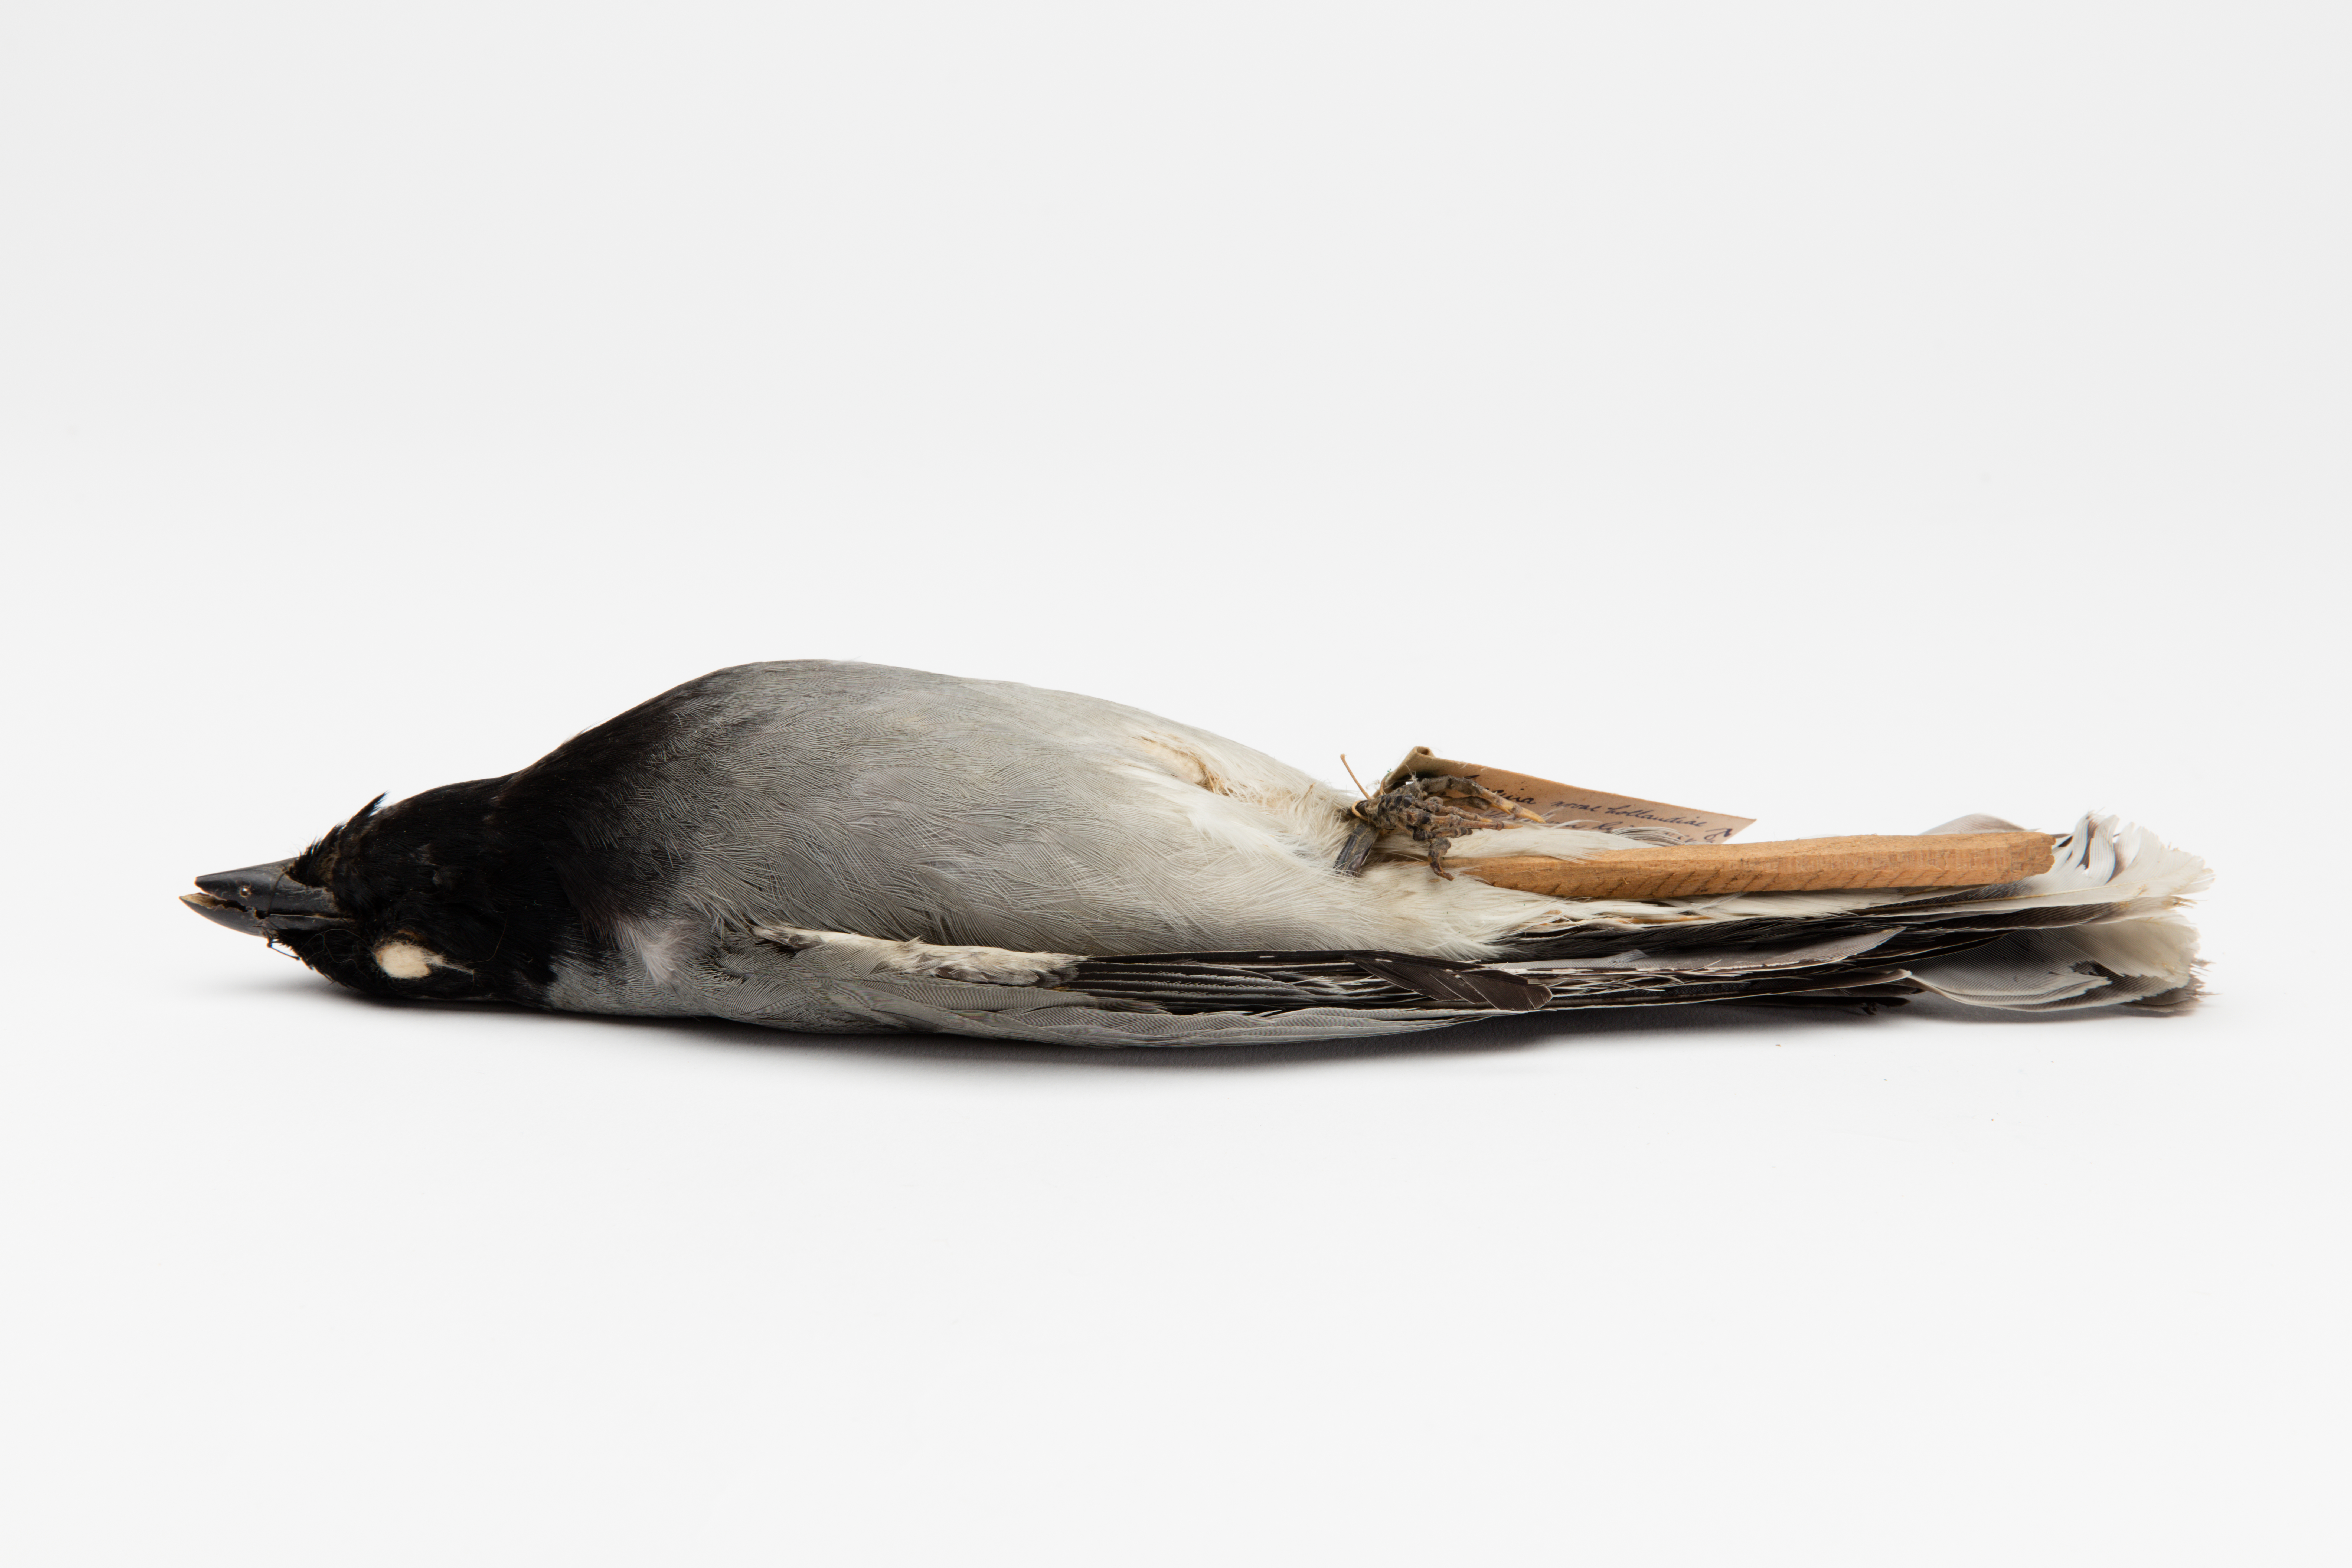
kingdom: Animalia
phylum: Chordata
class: Aves
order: Passeriformes
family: Campephagidae
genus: Coracina
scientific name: Coracina novaehollandiae
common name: Black-faced cuckooshrike
